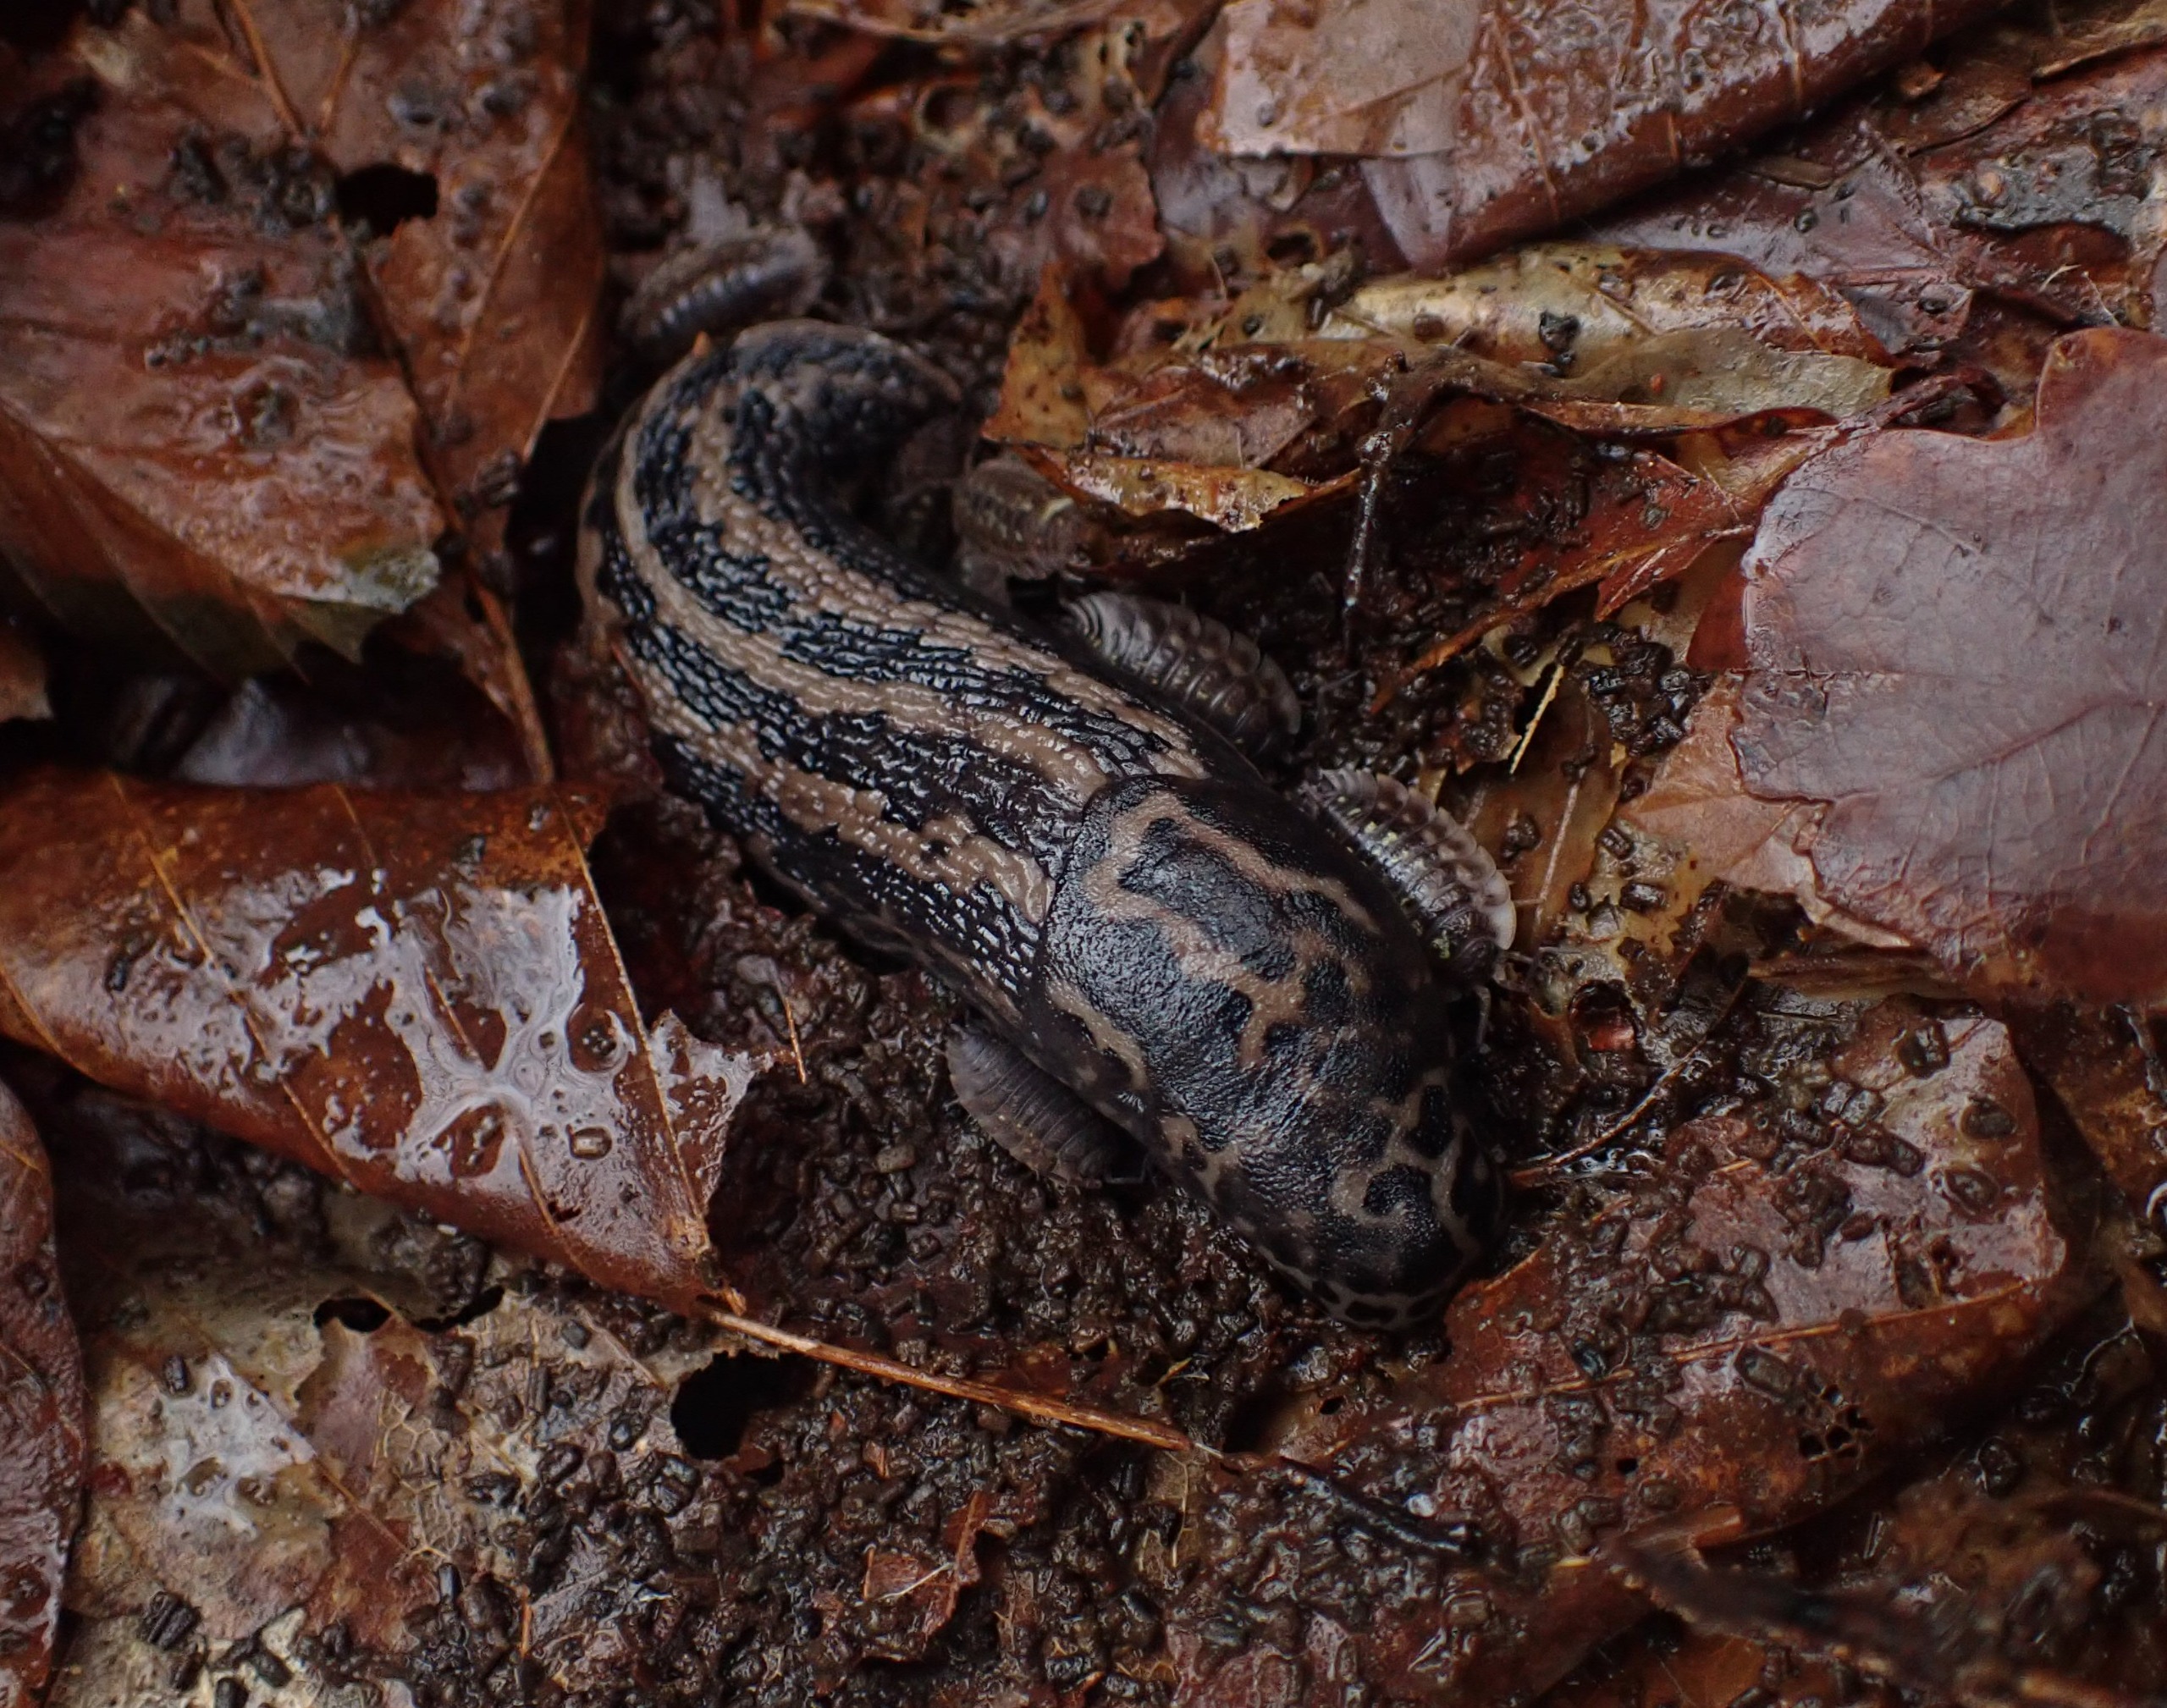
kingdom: Animalia
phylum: Mollusca
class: Gastropoda
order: Stylommatophora
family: Limacidae
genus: Limax
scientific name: Limax maximus
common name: Pantersnegl
